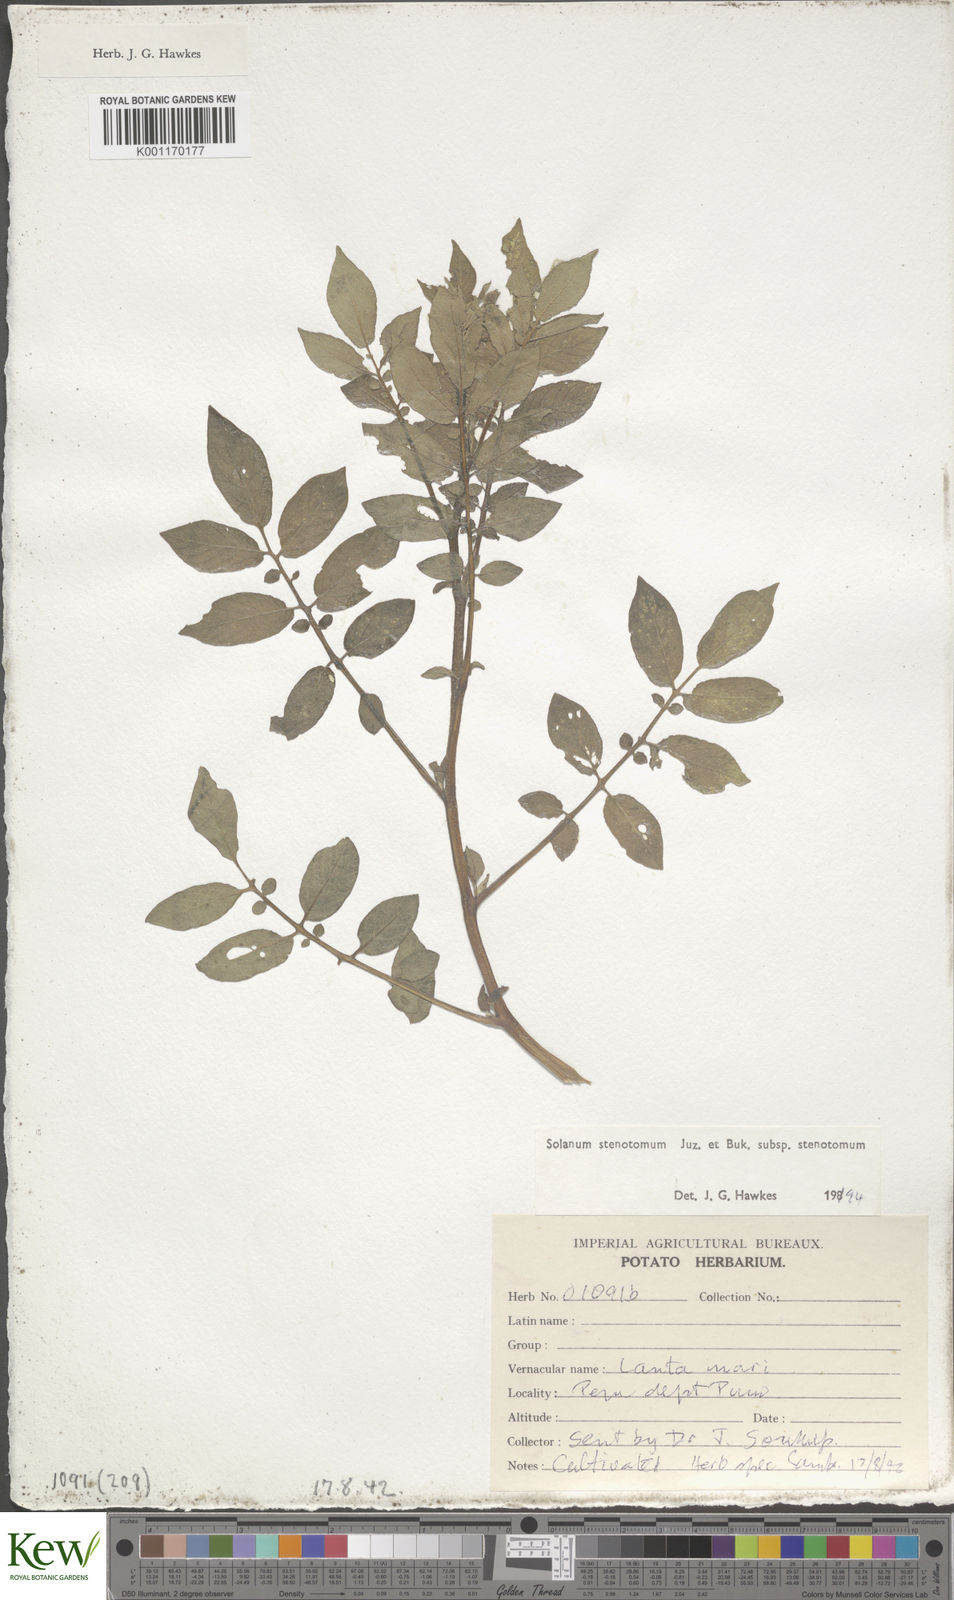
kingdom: Plantae
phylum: Tracheophyta
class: Magnoliopsida
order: Solanales
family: Solanaceae
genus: Solanum
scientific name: Solanum tuberosum
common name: Potato
